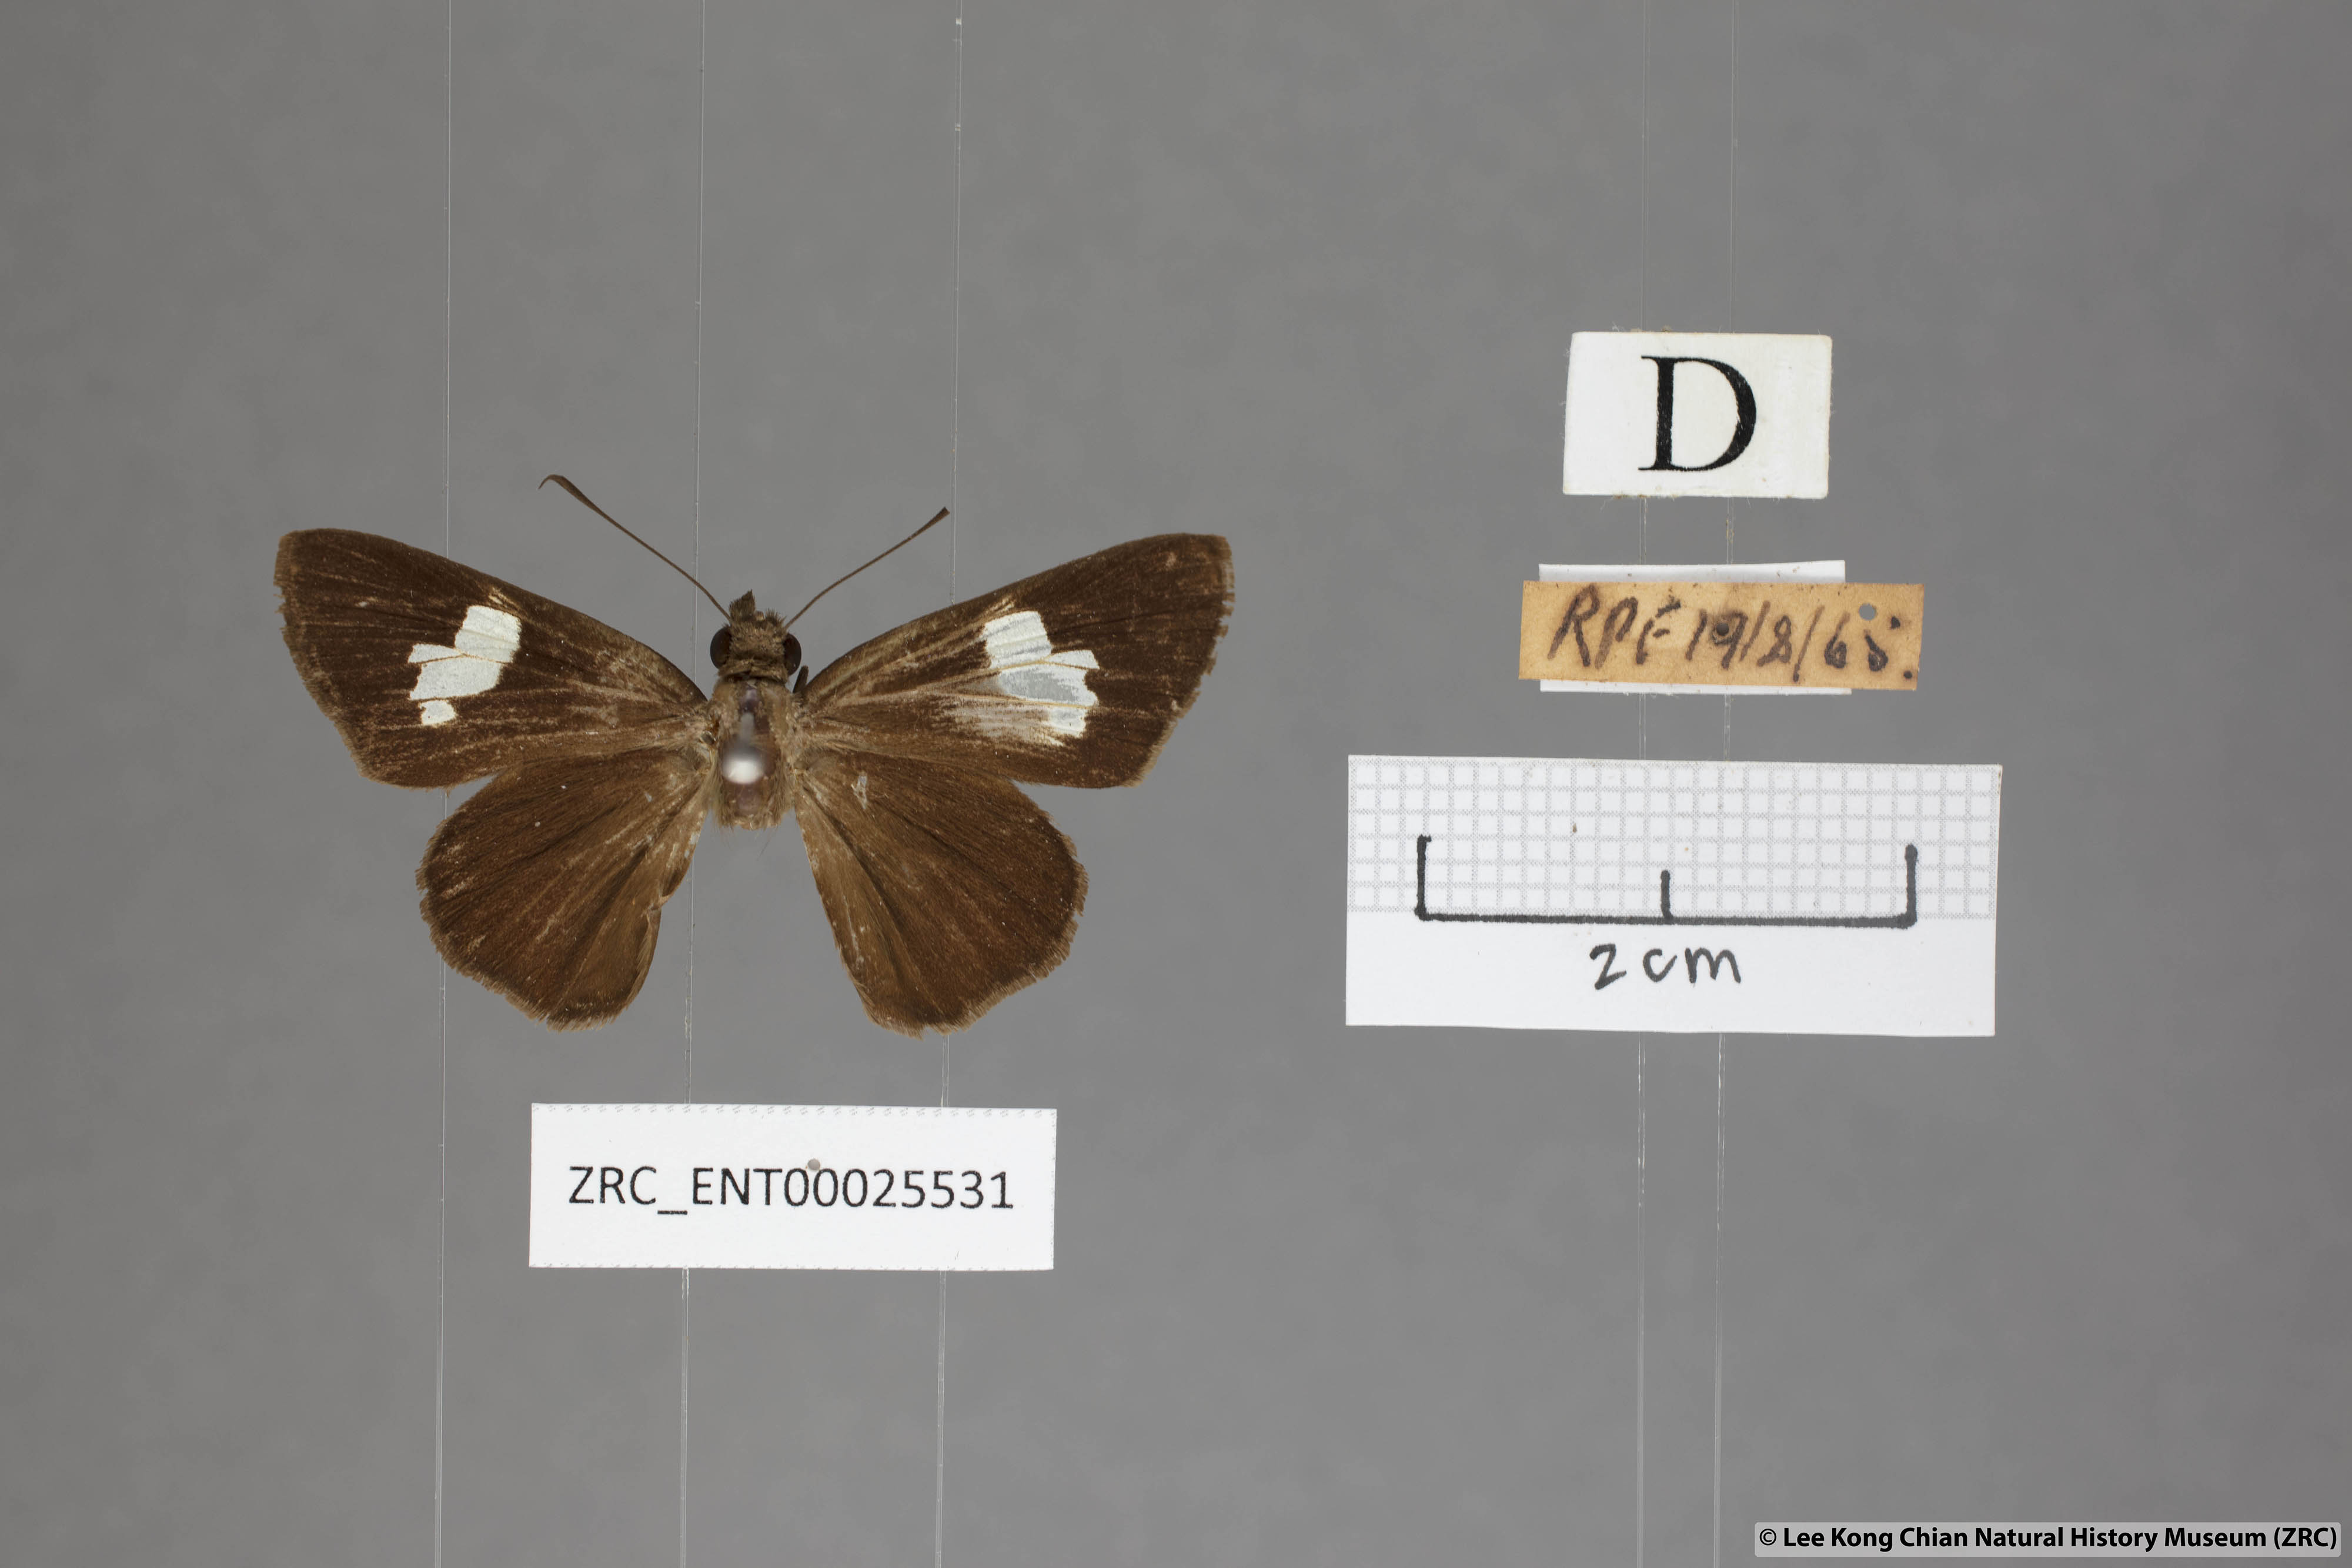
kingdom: Animalia
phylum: Arthropoda
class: Insecta
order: Lepidoptera
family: Hesperiidae
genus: Quedara
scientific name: Quedara monteithi
